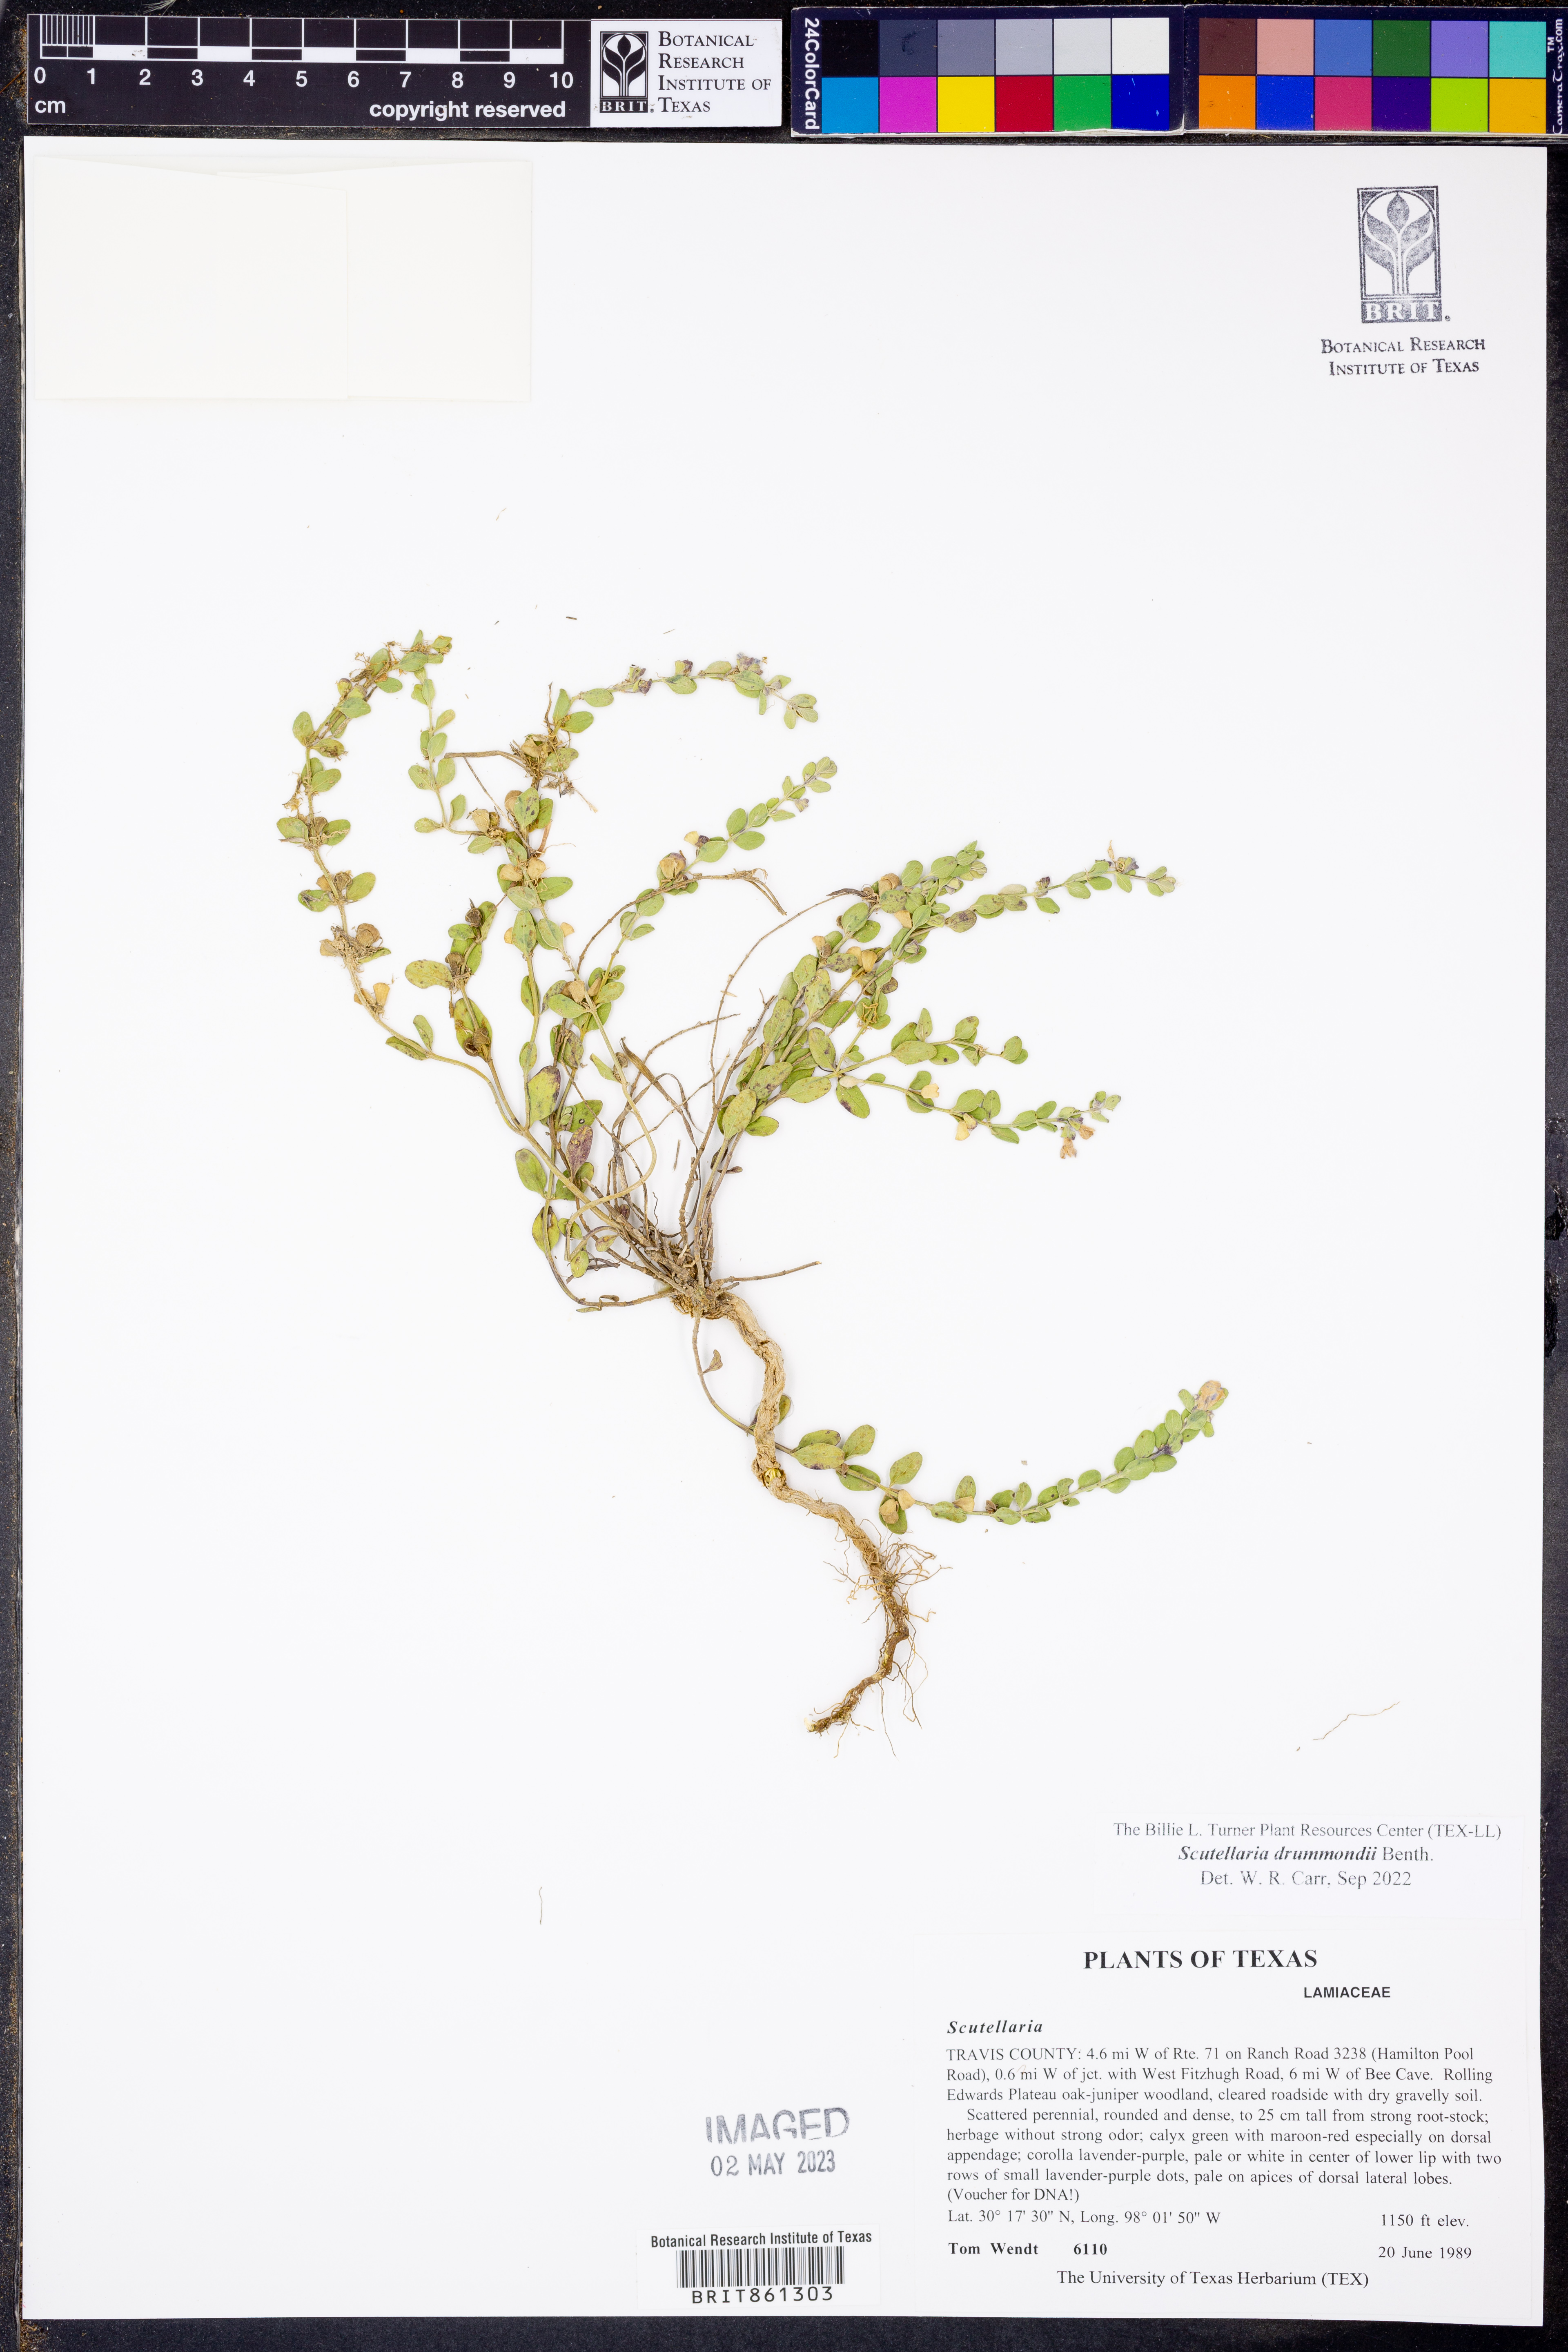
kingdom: Plantae
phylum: Tracheophyta
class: Magnoliopsida
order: Lamiales
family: Lamiaceae
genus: Scutellaria
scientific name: Scutellaria drummondii
